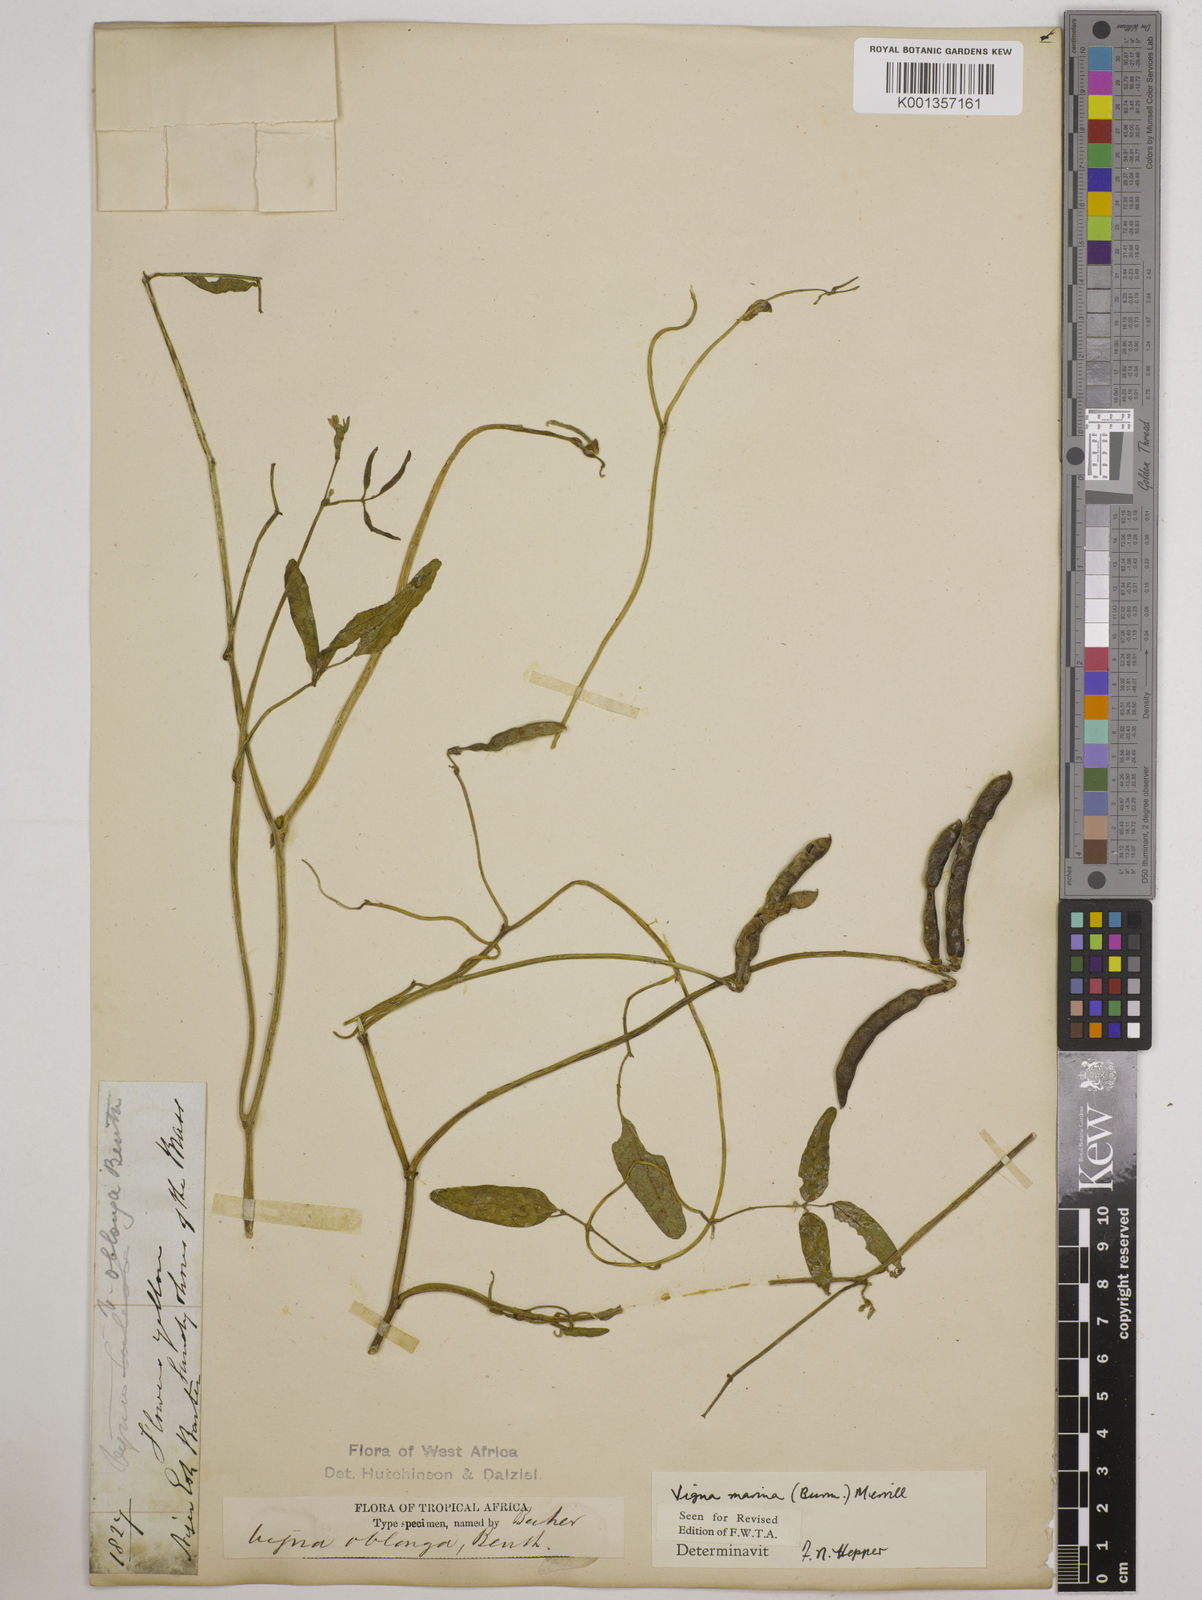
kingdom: Plantae
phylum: Tracheophyta
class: Magnoliopsida
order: Fabales
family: Fabaceae
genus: Vigna
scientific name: Vigna marina
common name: Dune-bean
